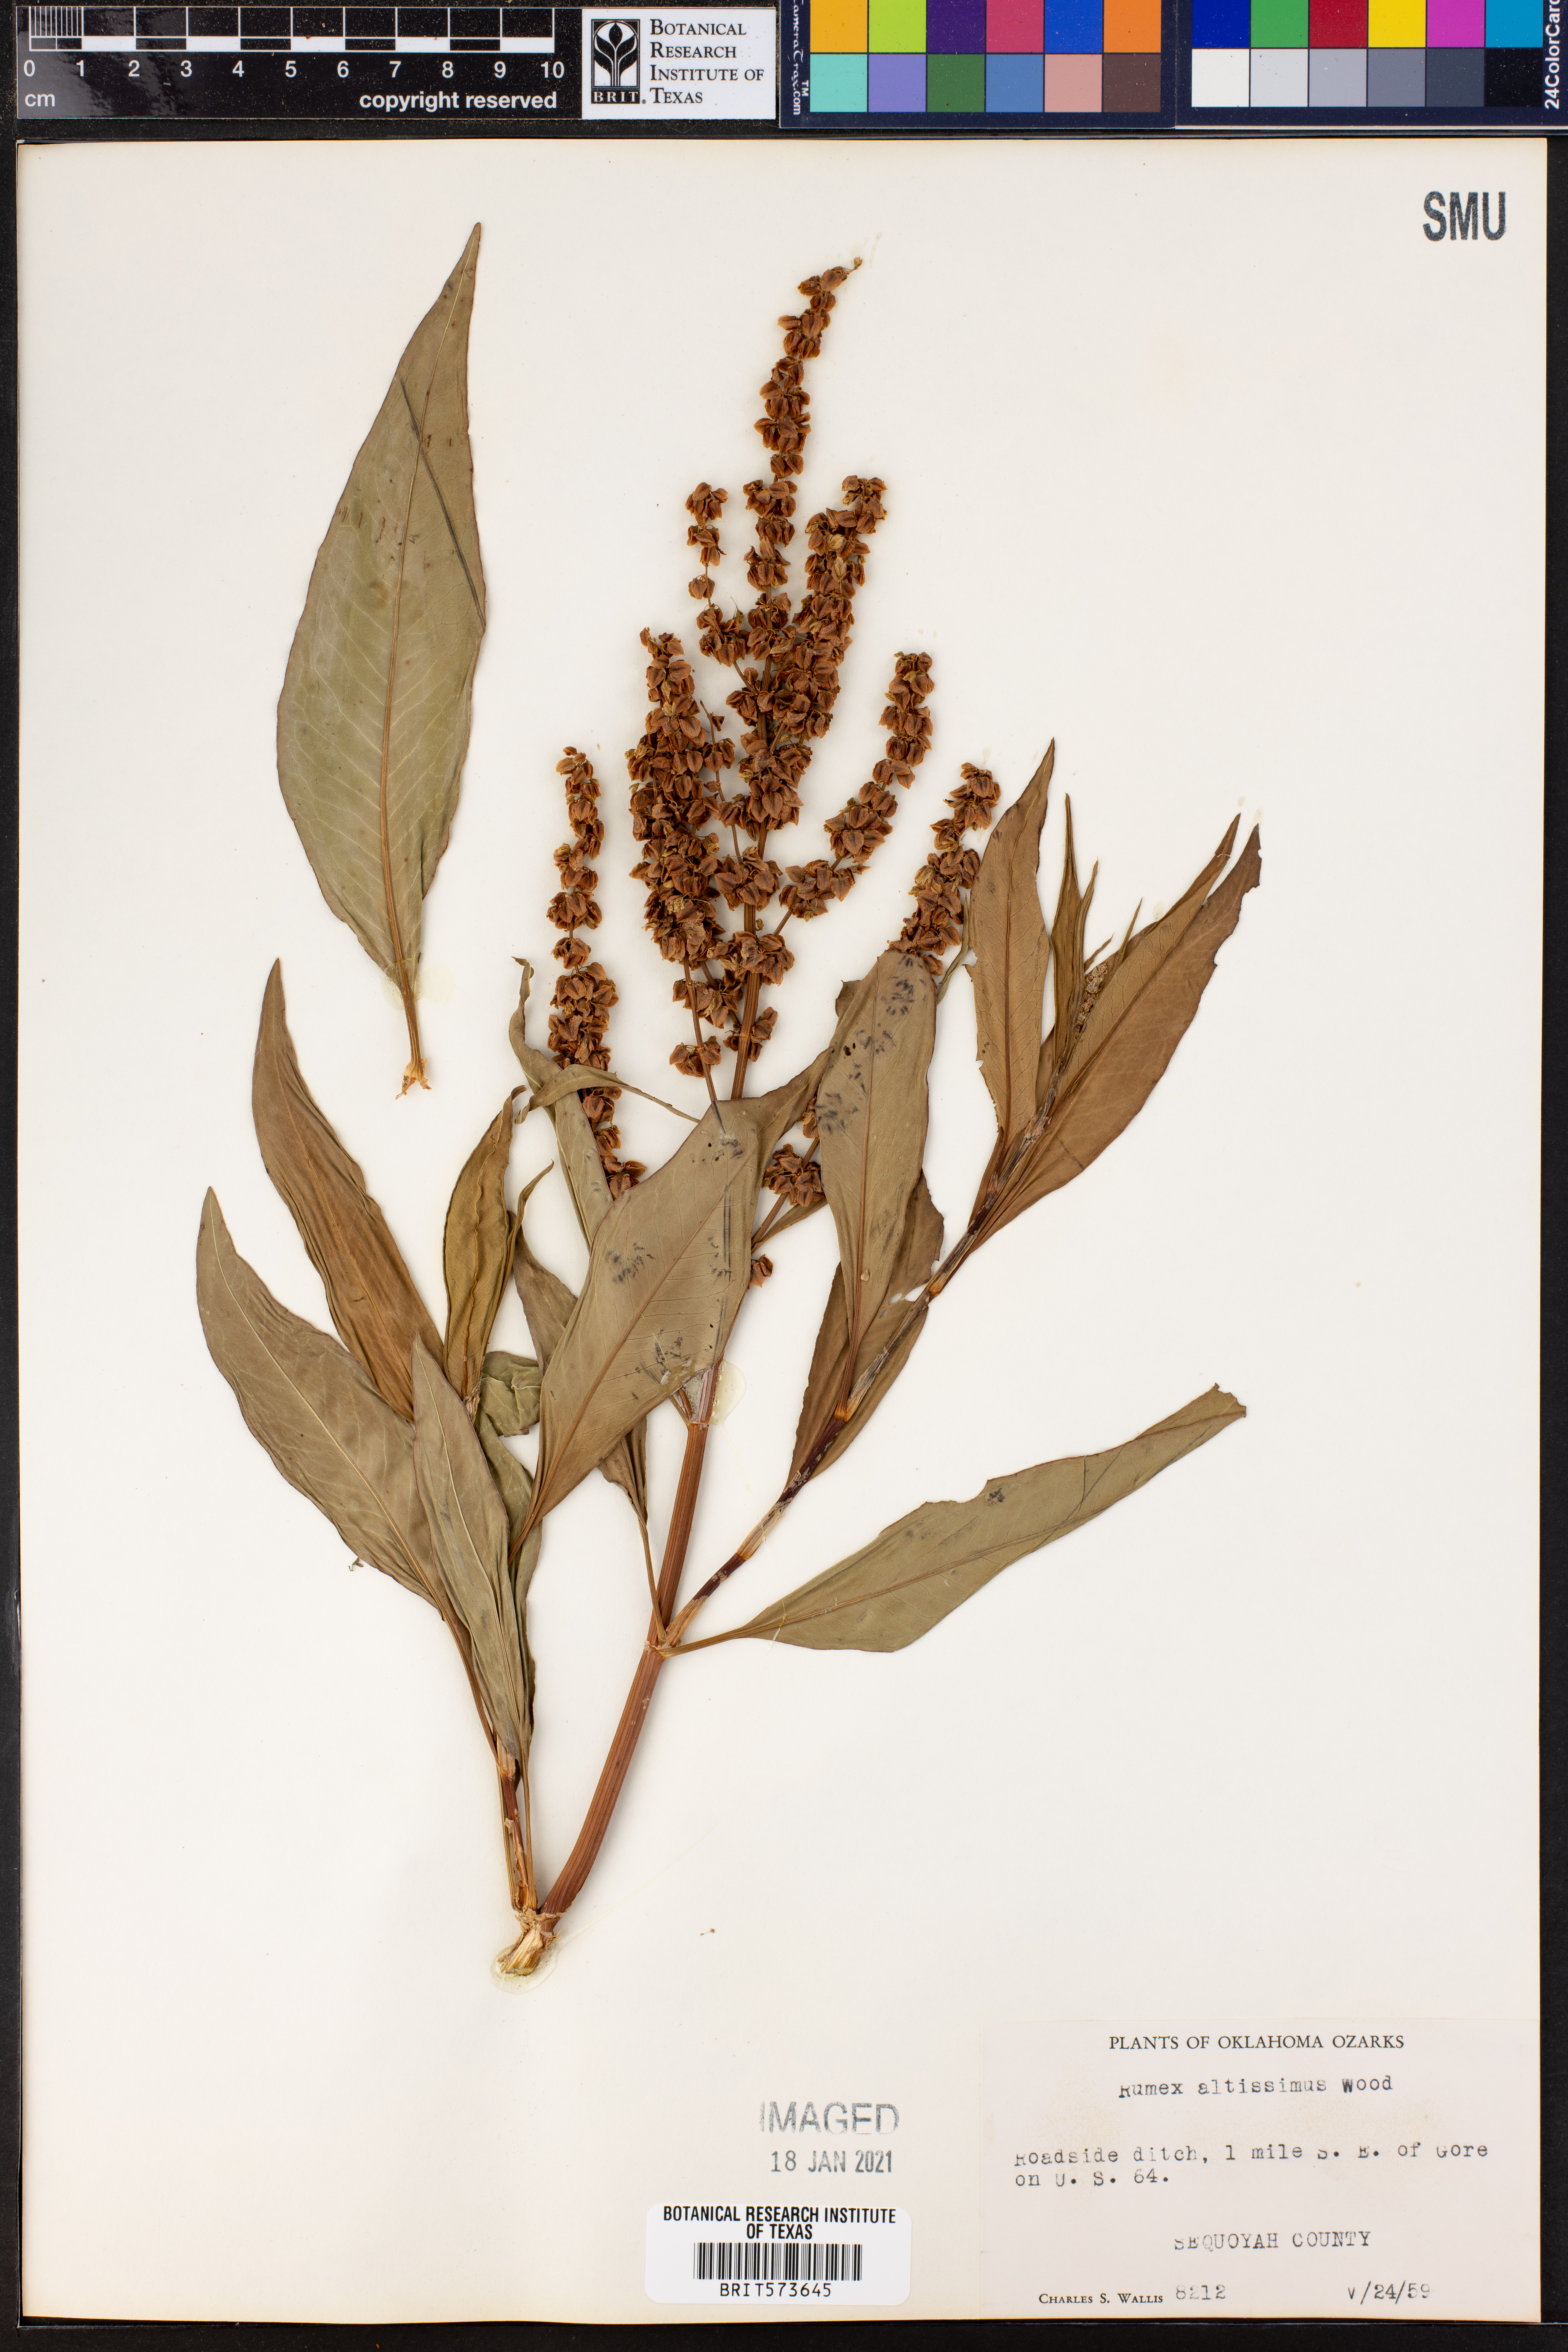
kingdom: Plantae
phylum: Tracheophyta
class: Magnoliopsida
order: Caryophyllales
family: Polygonaceae
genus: Rumex
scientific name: Rumex altissimus
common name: Smooth dock
